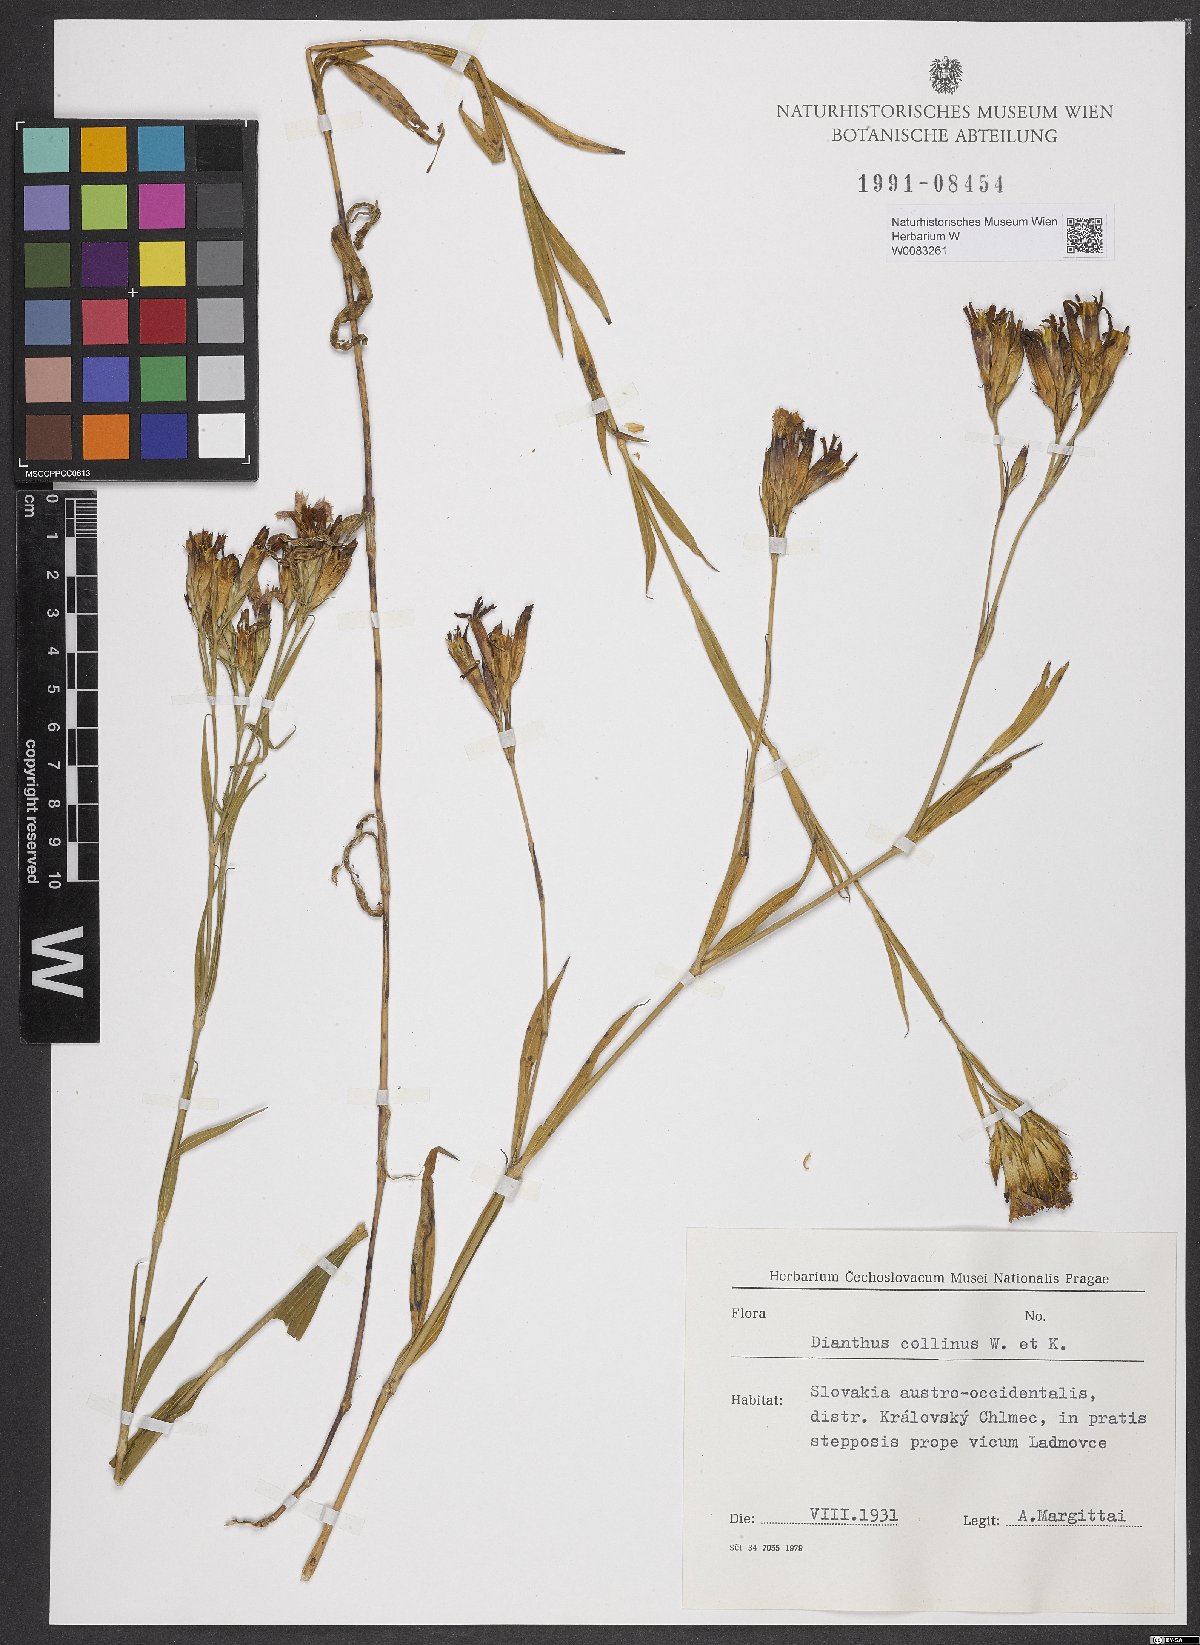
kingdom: Plantae
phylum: Tracheophyta
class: Magnoliopsida
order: Caryophyllales
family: Caryophyllaceae
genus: Dianthus
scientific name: Dianthus collinus
